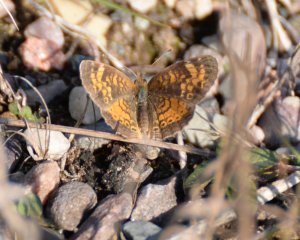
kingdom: Animalia
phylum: Arthropoda
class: Insecta
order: Lepidoptera
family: Nymphalidae
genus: Phyciodes
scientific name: Phyciodes tharos
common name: Northern Crescent
